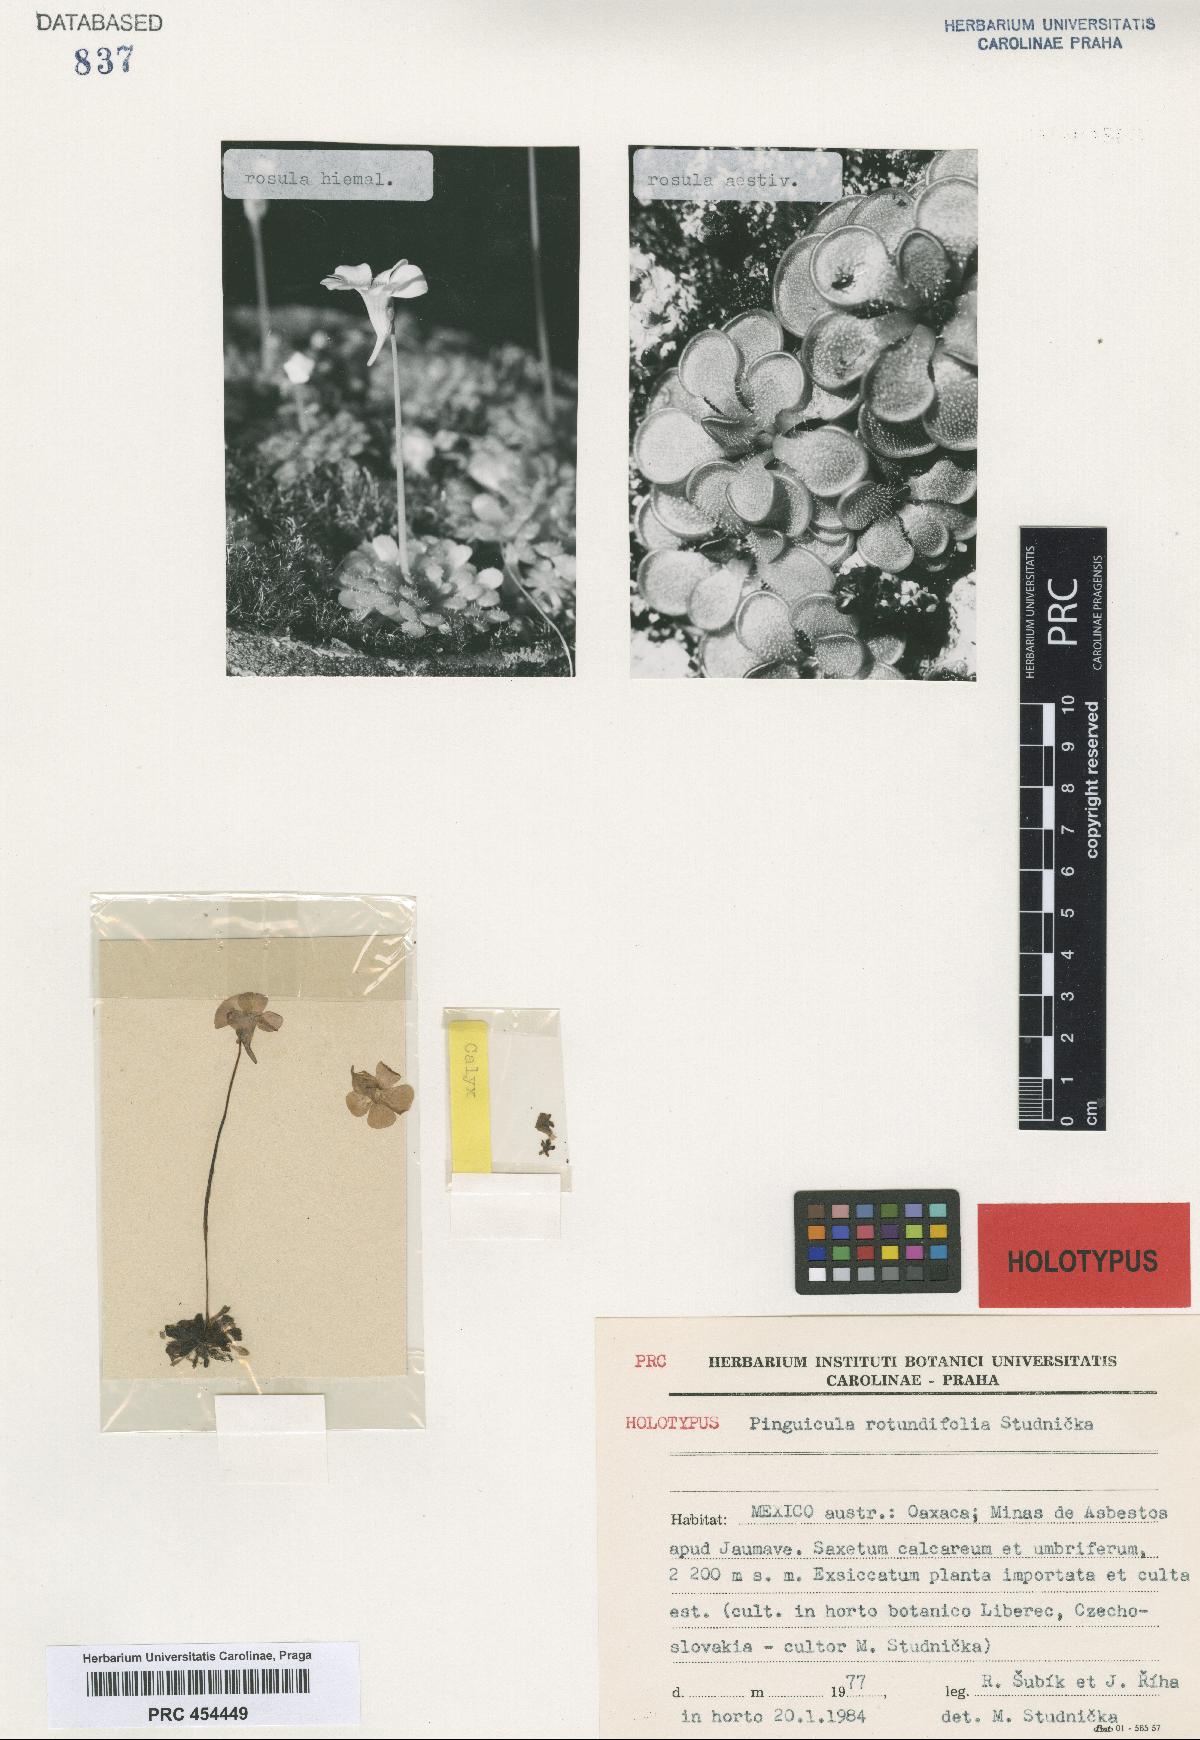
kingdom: Plantae
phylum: Tracheophyta
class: Magnoliopsida
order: Lamiales
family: Lentibulariaceae
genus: Pinguicula
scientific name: Pinguicula rotundiflora
